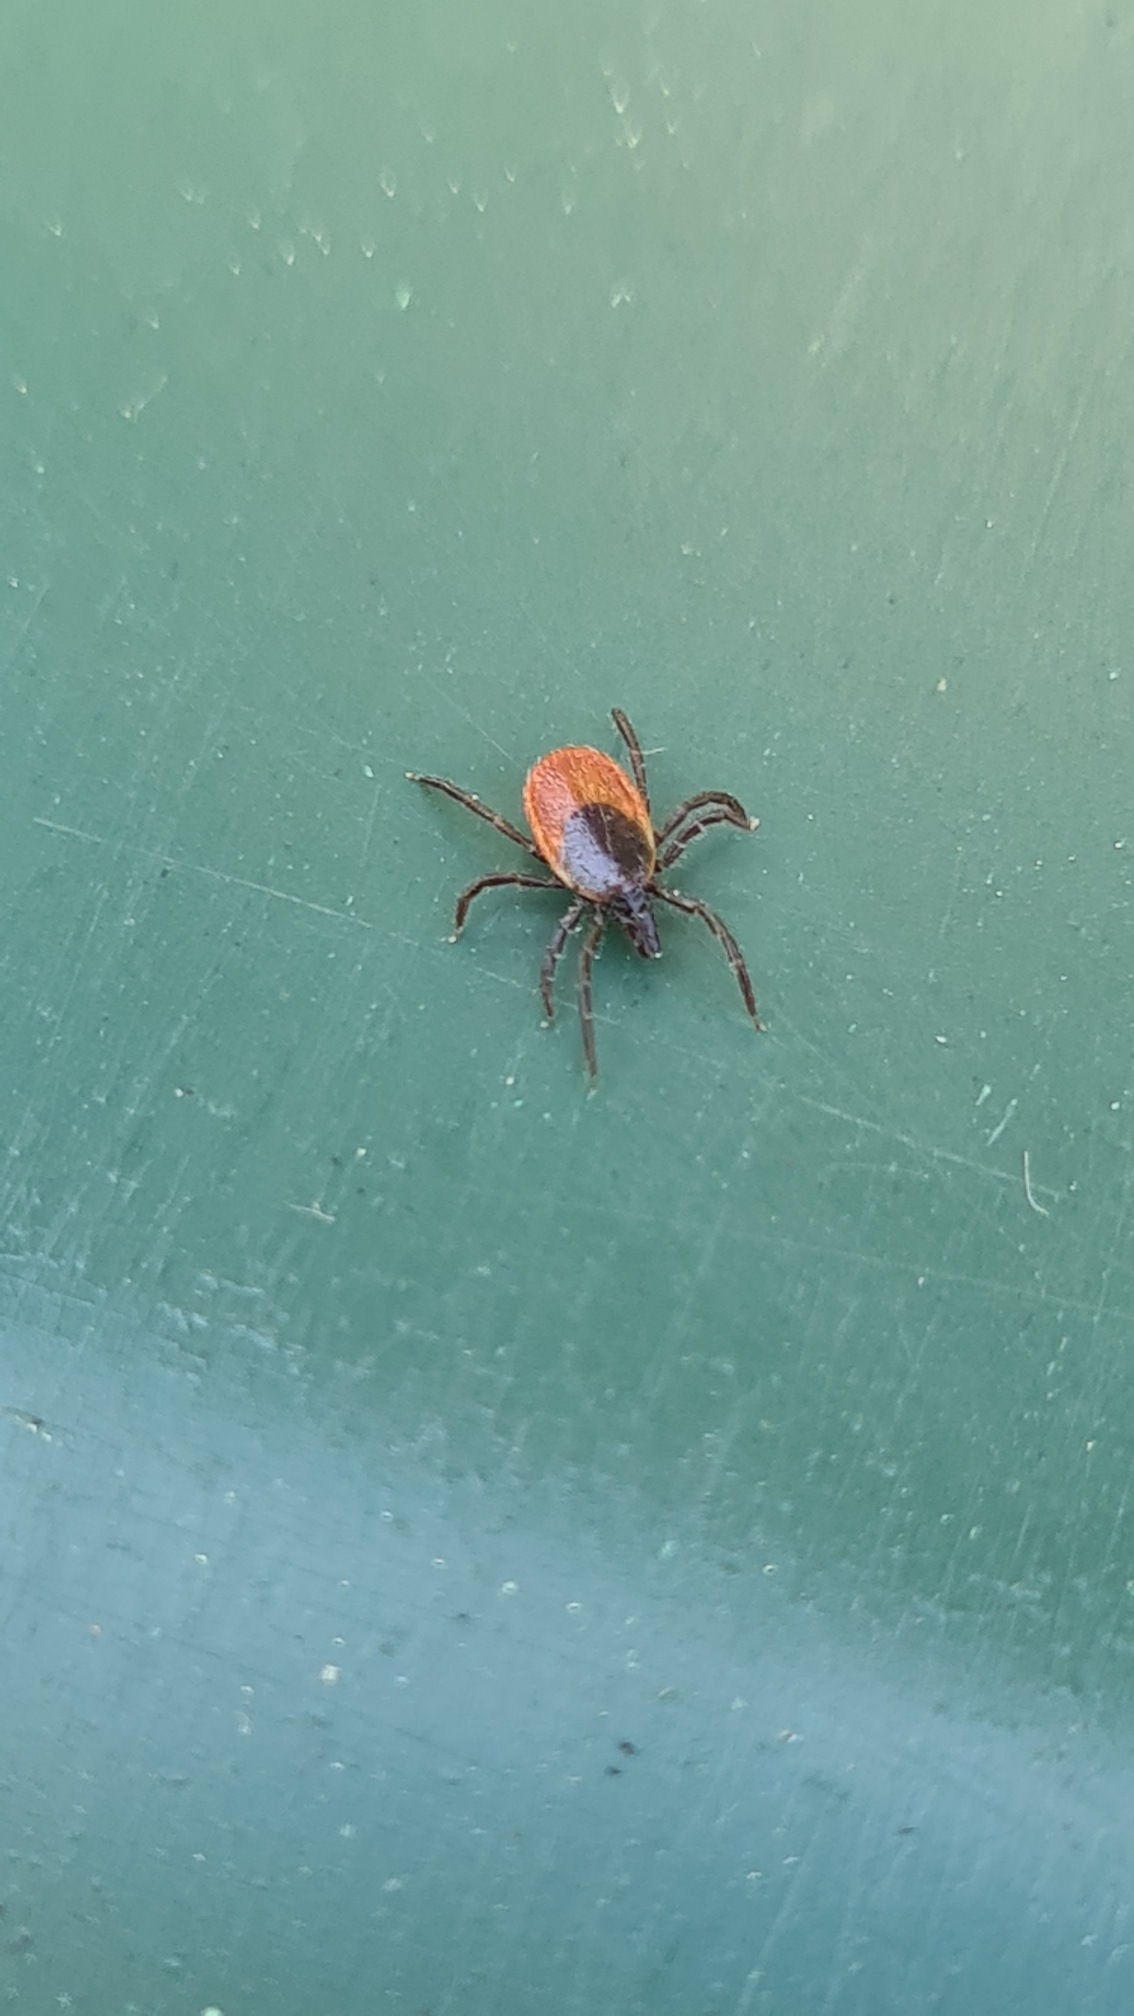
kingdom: Animalia
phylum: Arthropoda
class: Arachnida
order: Ixodida
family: Ixodidae
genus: Ixodes
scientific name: Ixodes ricinus
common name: Skovflåt
